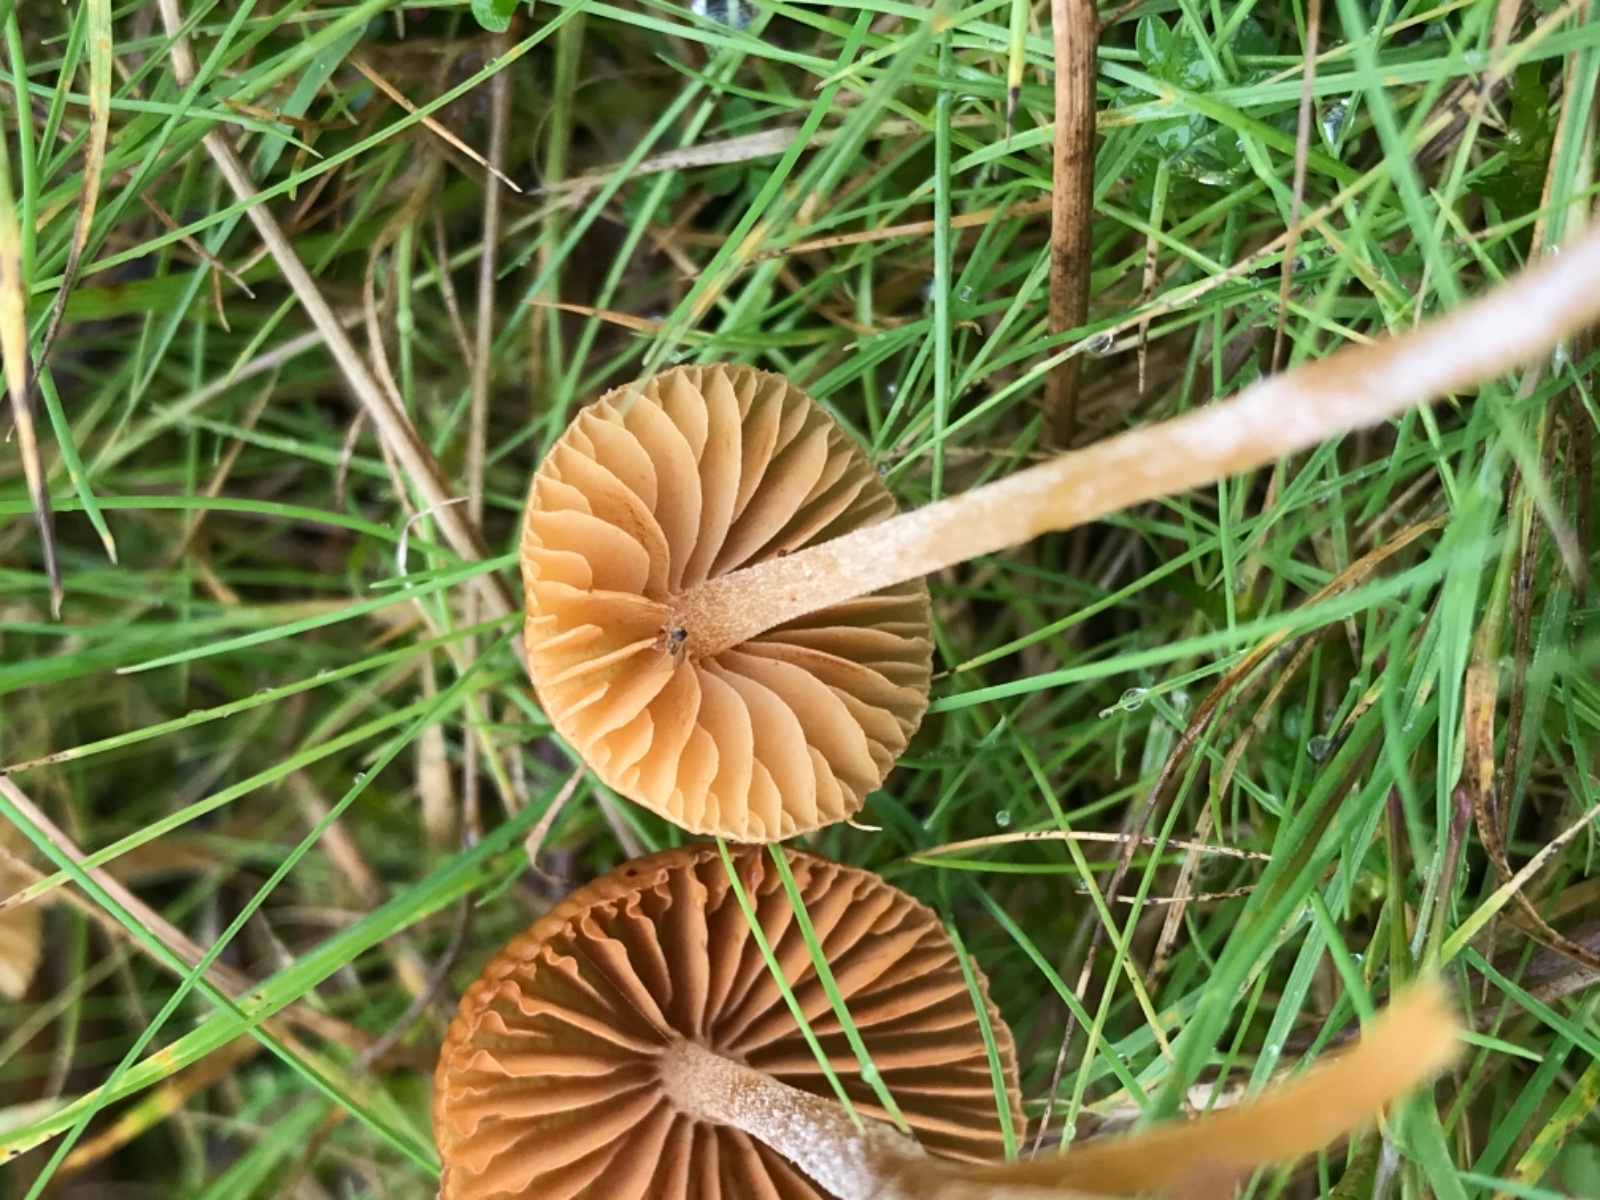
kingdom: Fungi
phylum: Basidiomycota
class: Agaricomycetes
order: Agaricales
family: Hymenogastraceae
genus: Galerina
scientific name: Galerina
